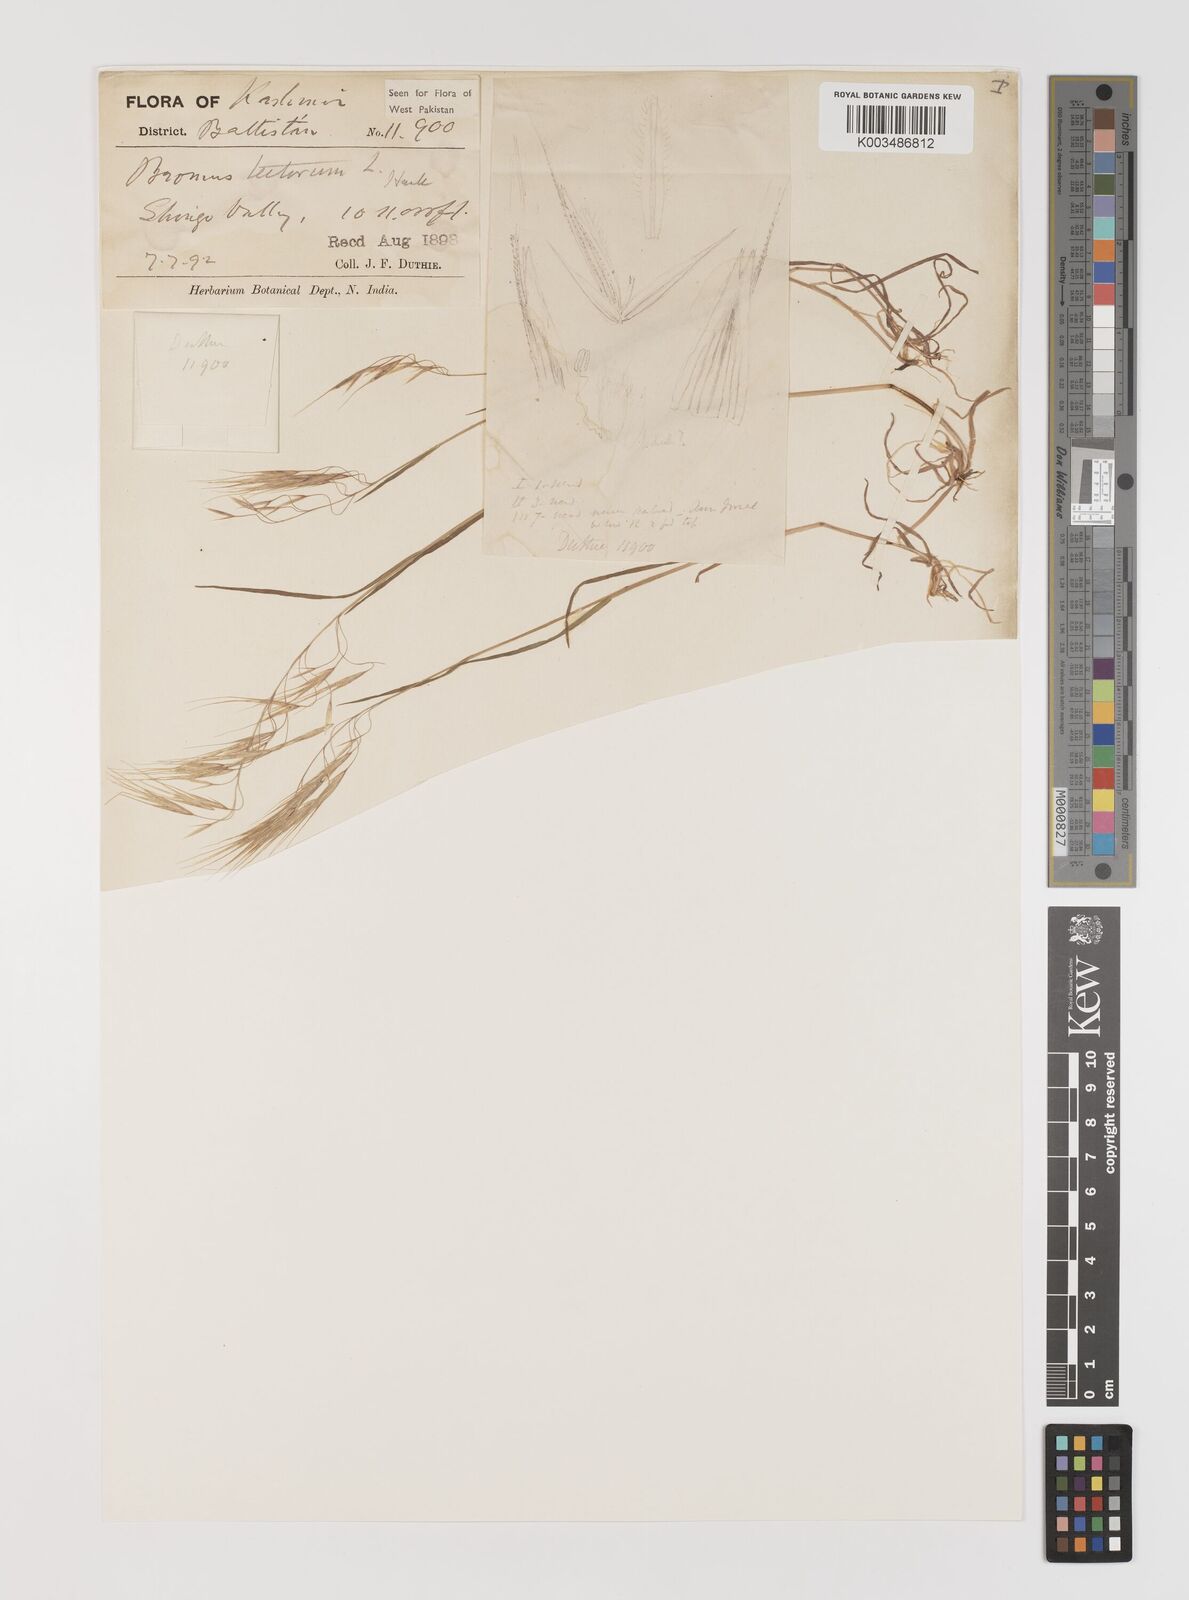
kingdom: Plantae
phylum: Tracheophyta
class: Liliopsida
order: Poales
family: Poaceae
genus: Bromus
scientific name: Bromus tectorum
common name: Cheatgrass
